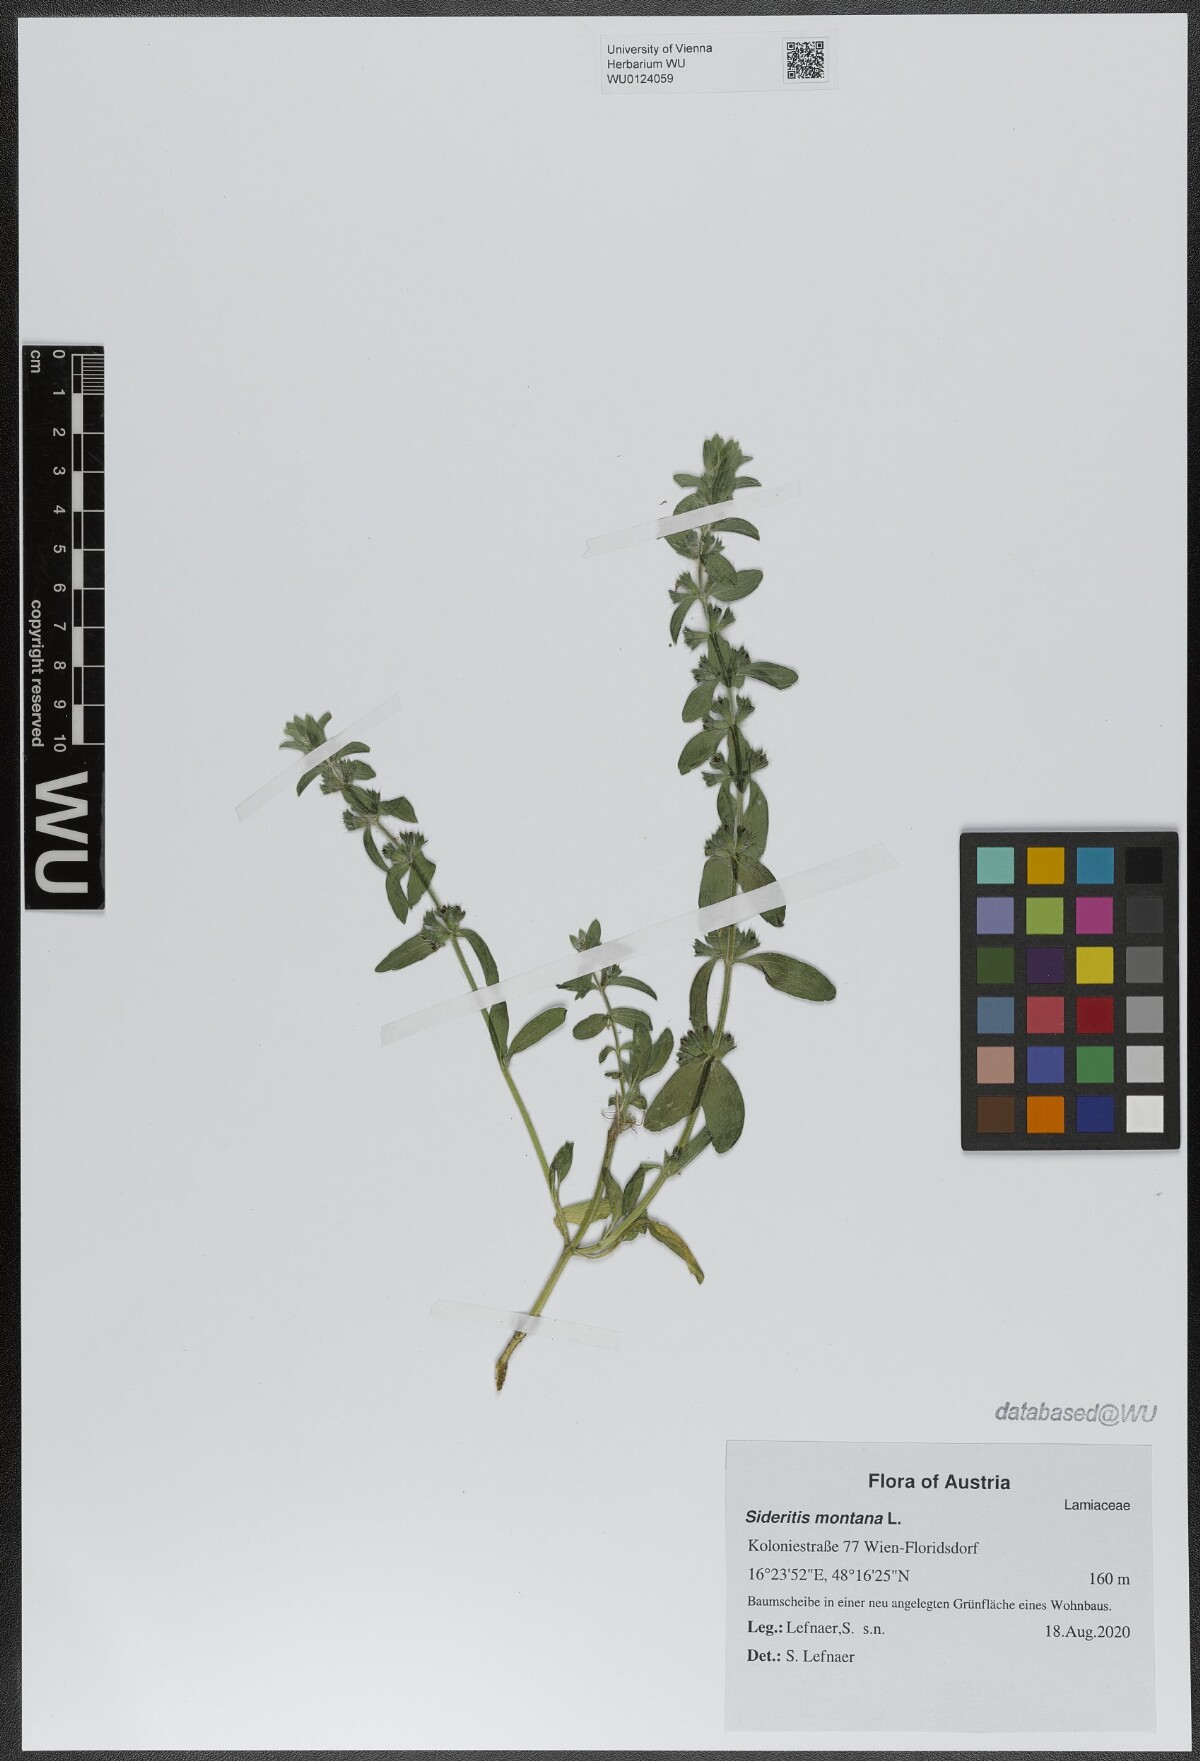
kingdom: Plantae
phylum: Tracheophyta
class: Magnoliopsida
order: Lamiales
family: Lamiaceae
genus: Sideritis
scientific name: Sideritis montana
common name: Mountain ironwort
